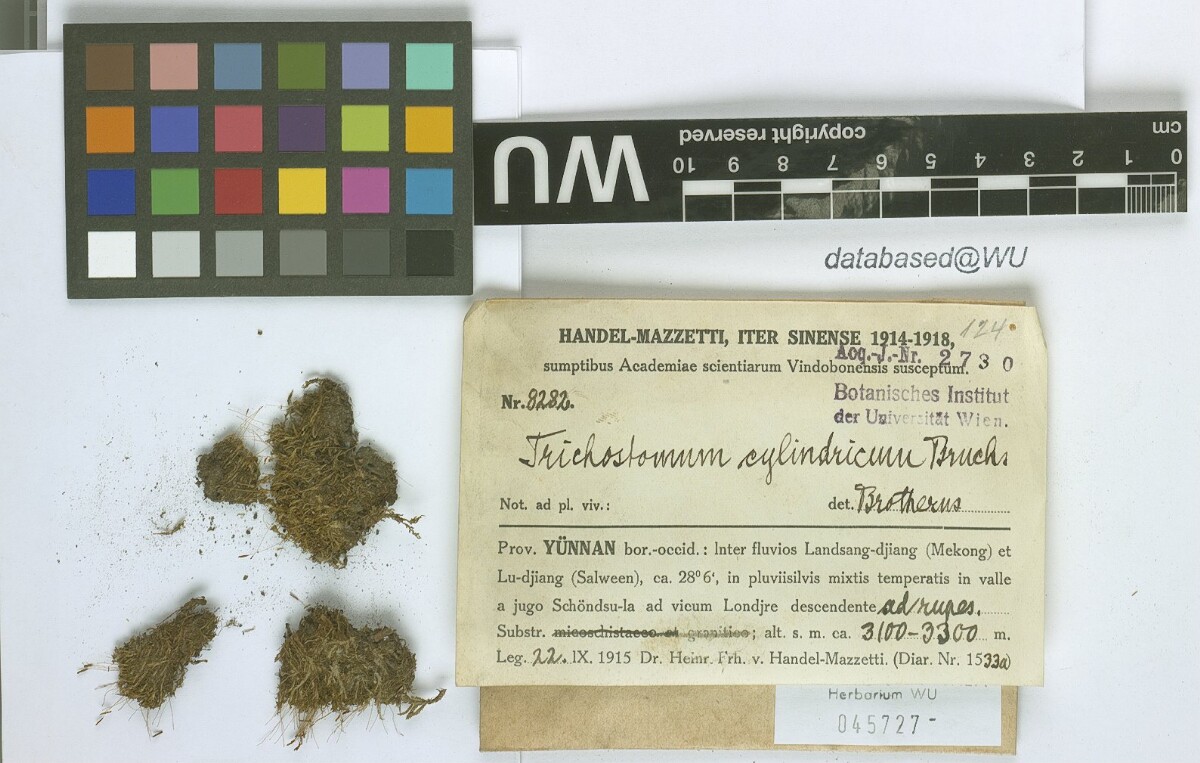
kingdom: Plantae
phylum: Bryophyta
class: Bryopsida
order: Pottiales
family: Pottiaceae
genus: Chionoloma
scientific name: Chionoloma tenuirostre
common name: Narrow-fruited crisp-moss
